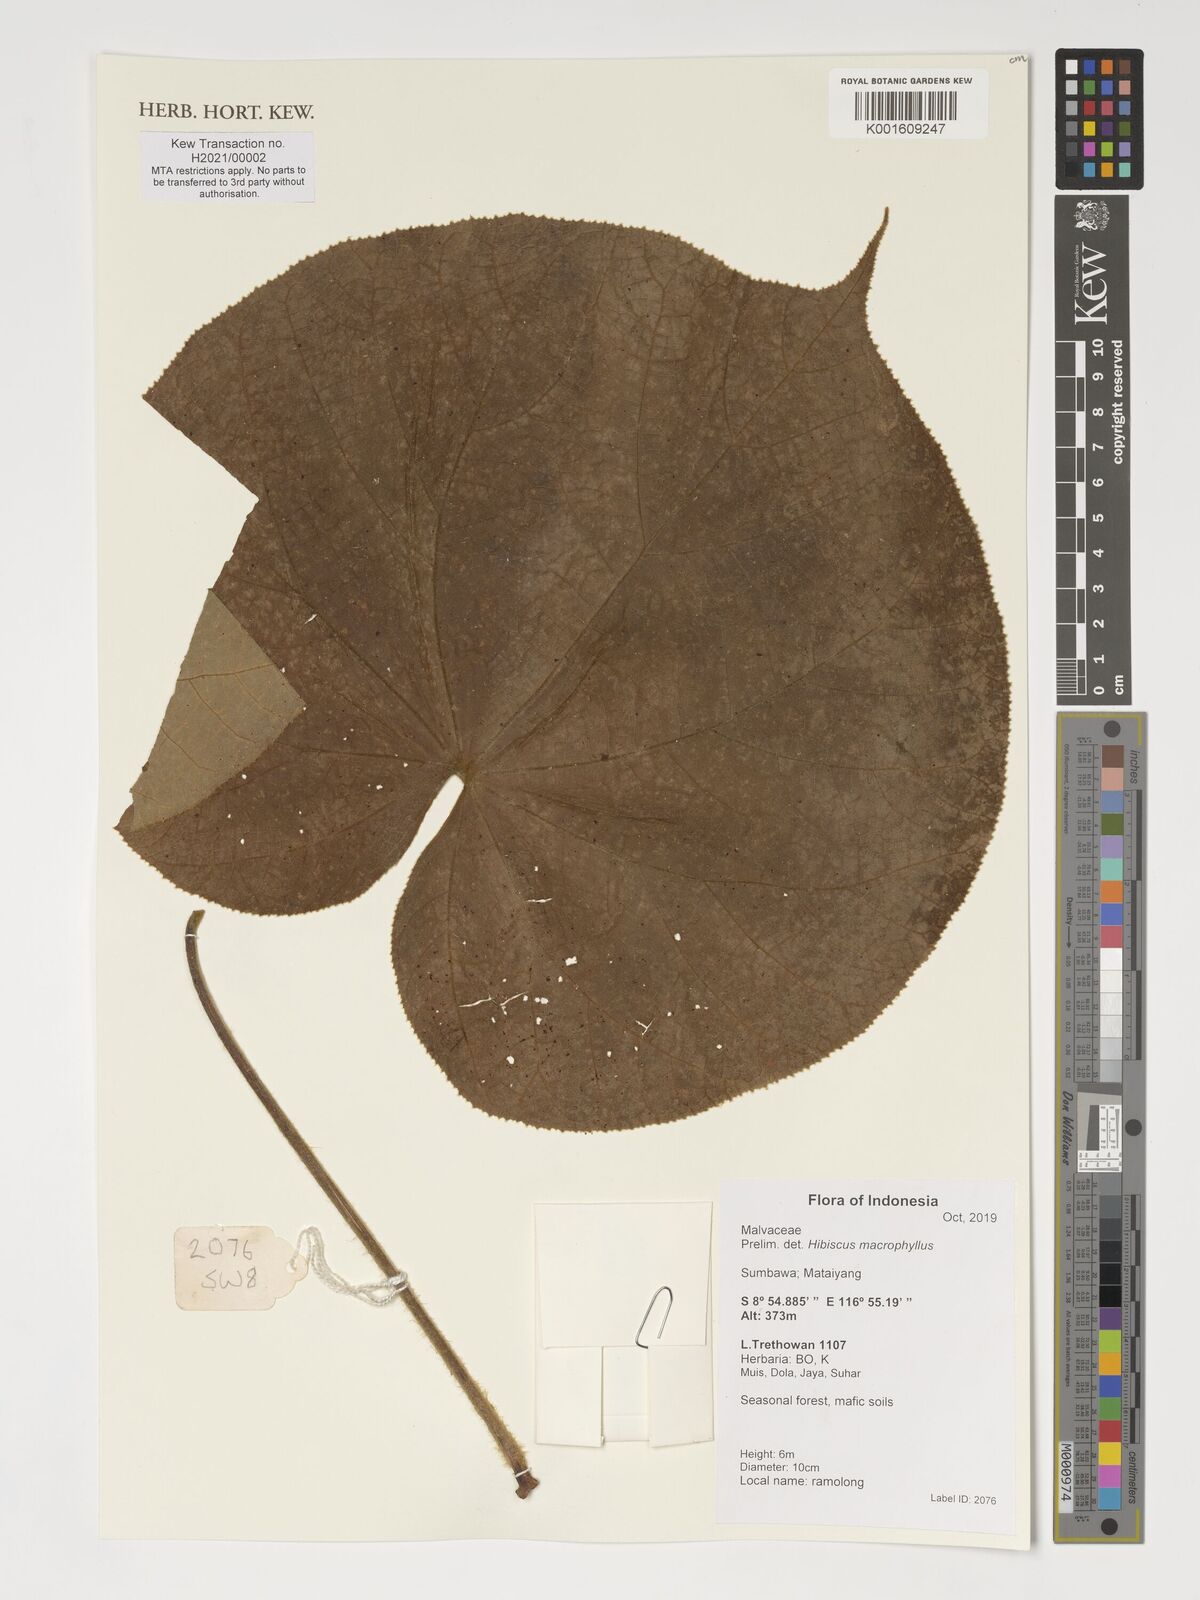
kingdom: Plantae
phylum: Tracheophyta
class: Magnoliopsida
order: Malvales
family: Malvaceae
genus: Talipariti
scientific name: Talipariti macrophyllum
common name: Largeleaf rosemallow
